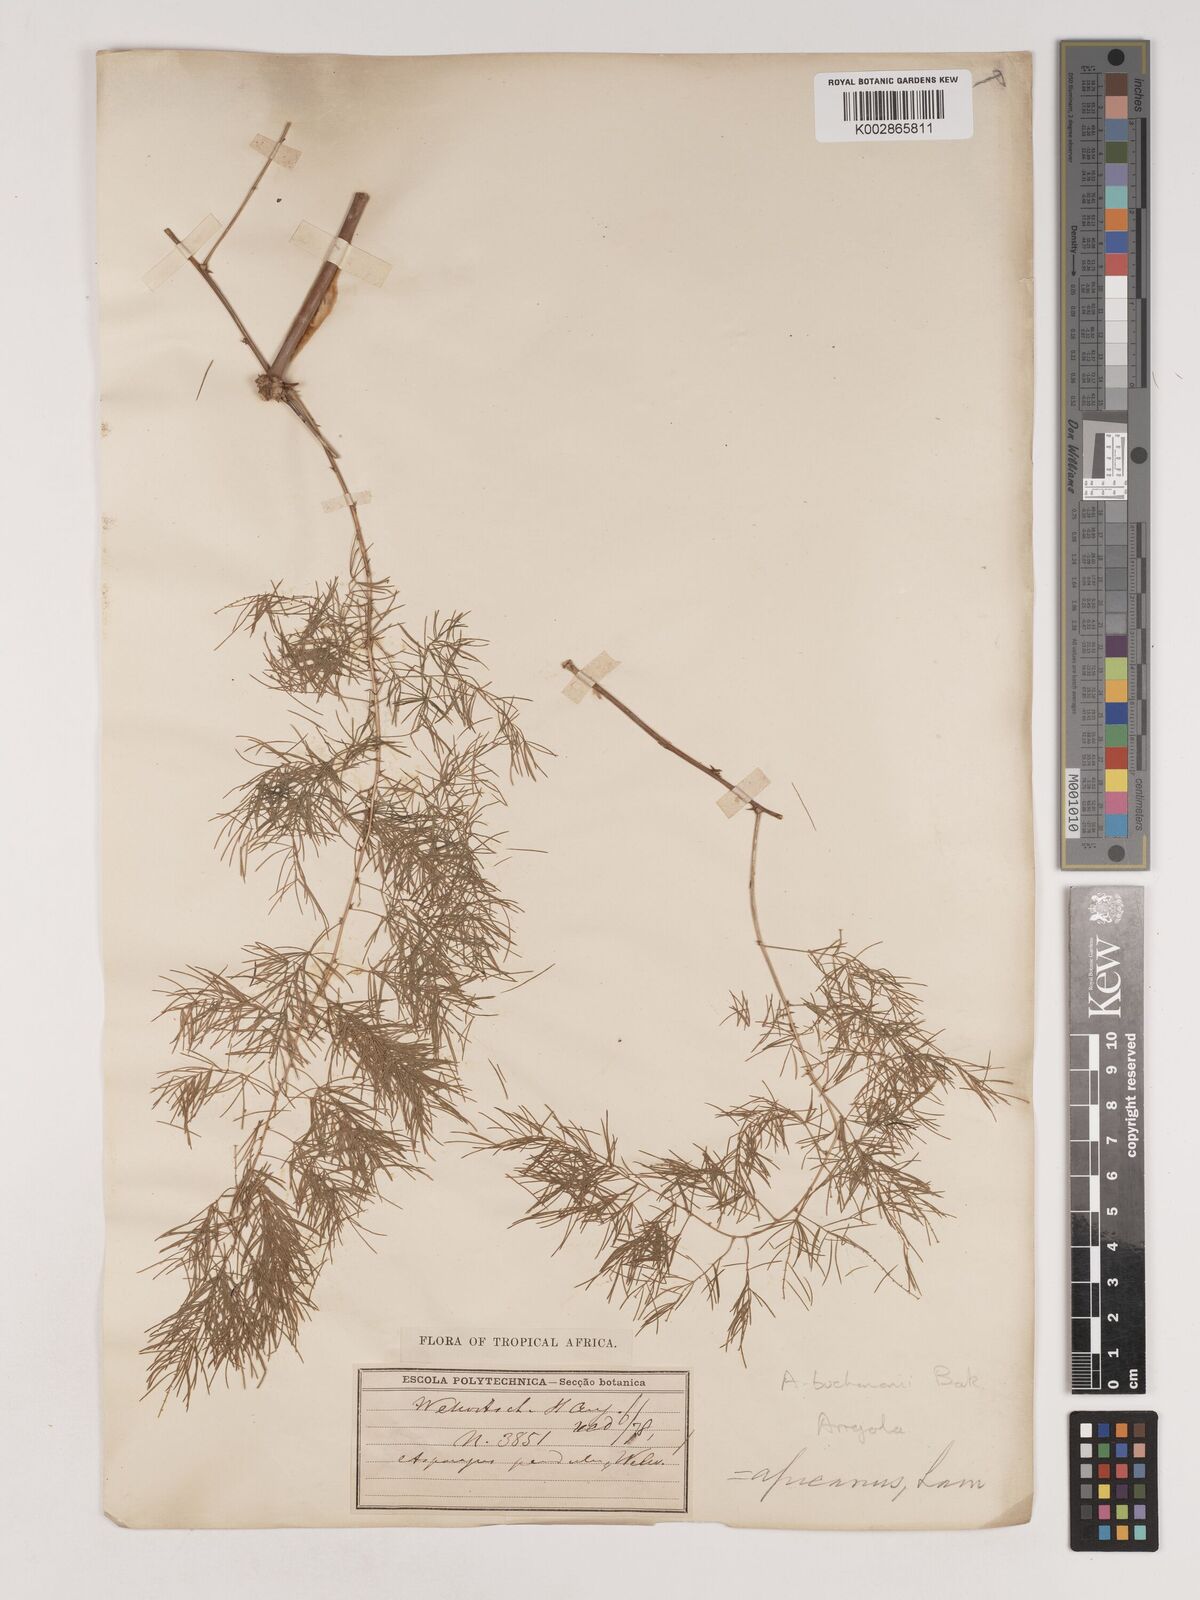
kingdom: Plantae
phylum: Tracheophyta
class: Liliopsida
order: Asparagales
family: Asparagaceae
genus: Asparagus
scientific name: Asparagus buchananii
